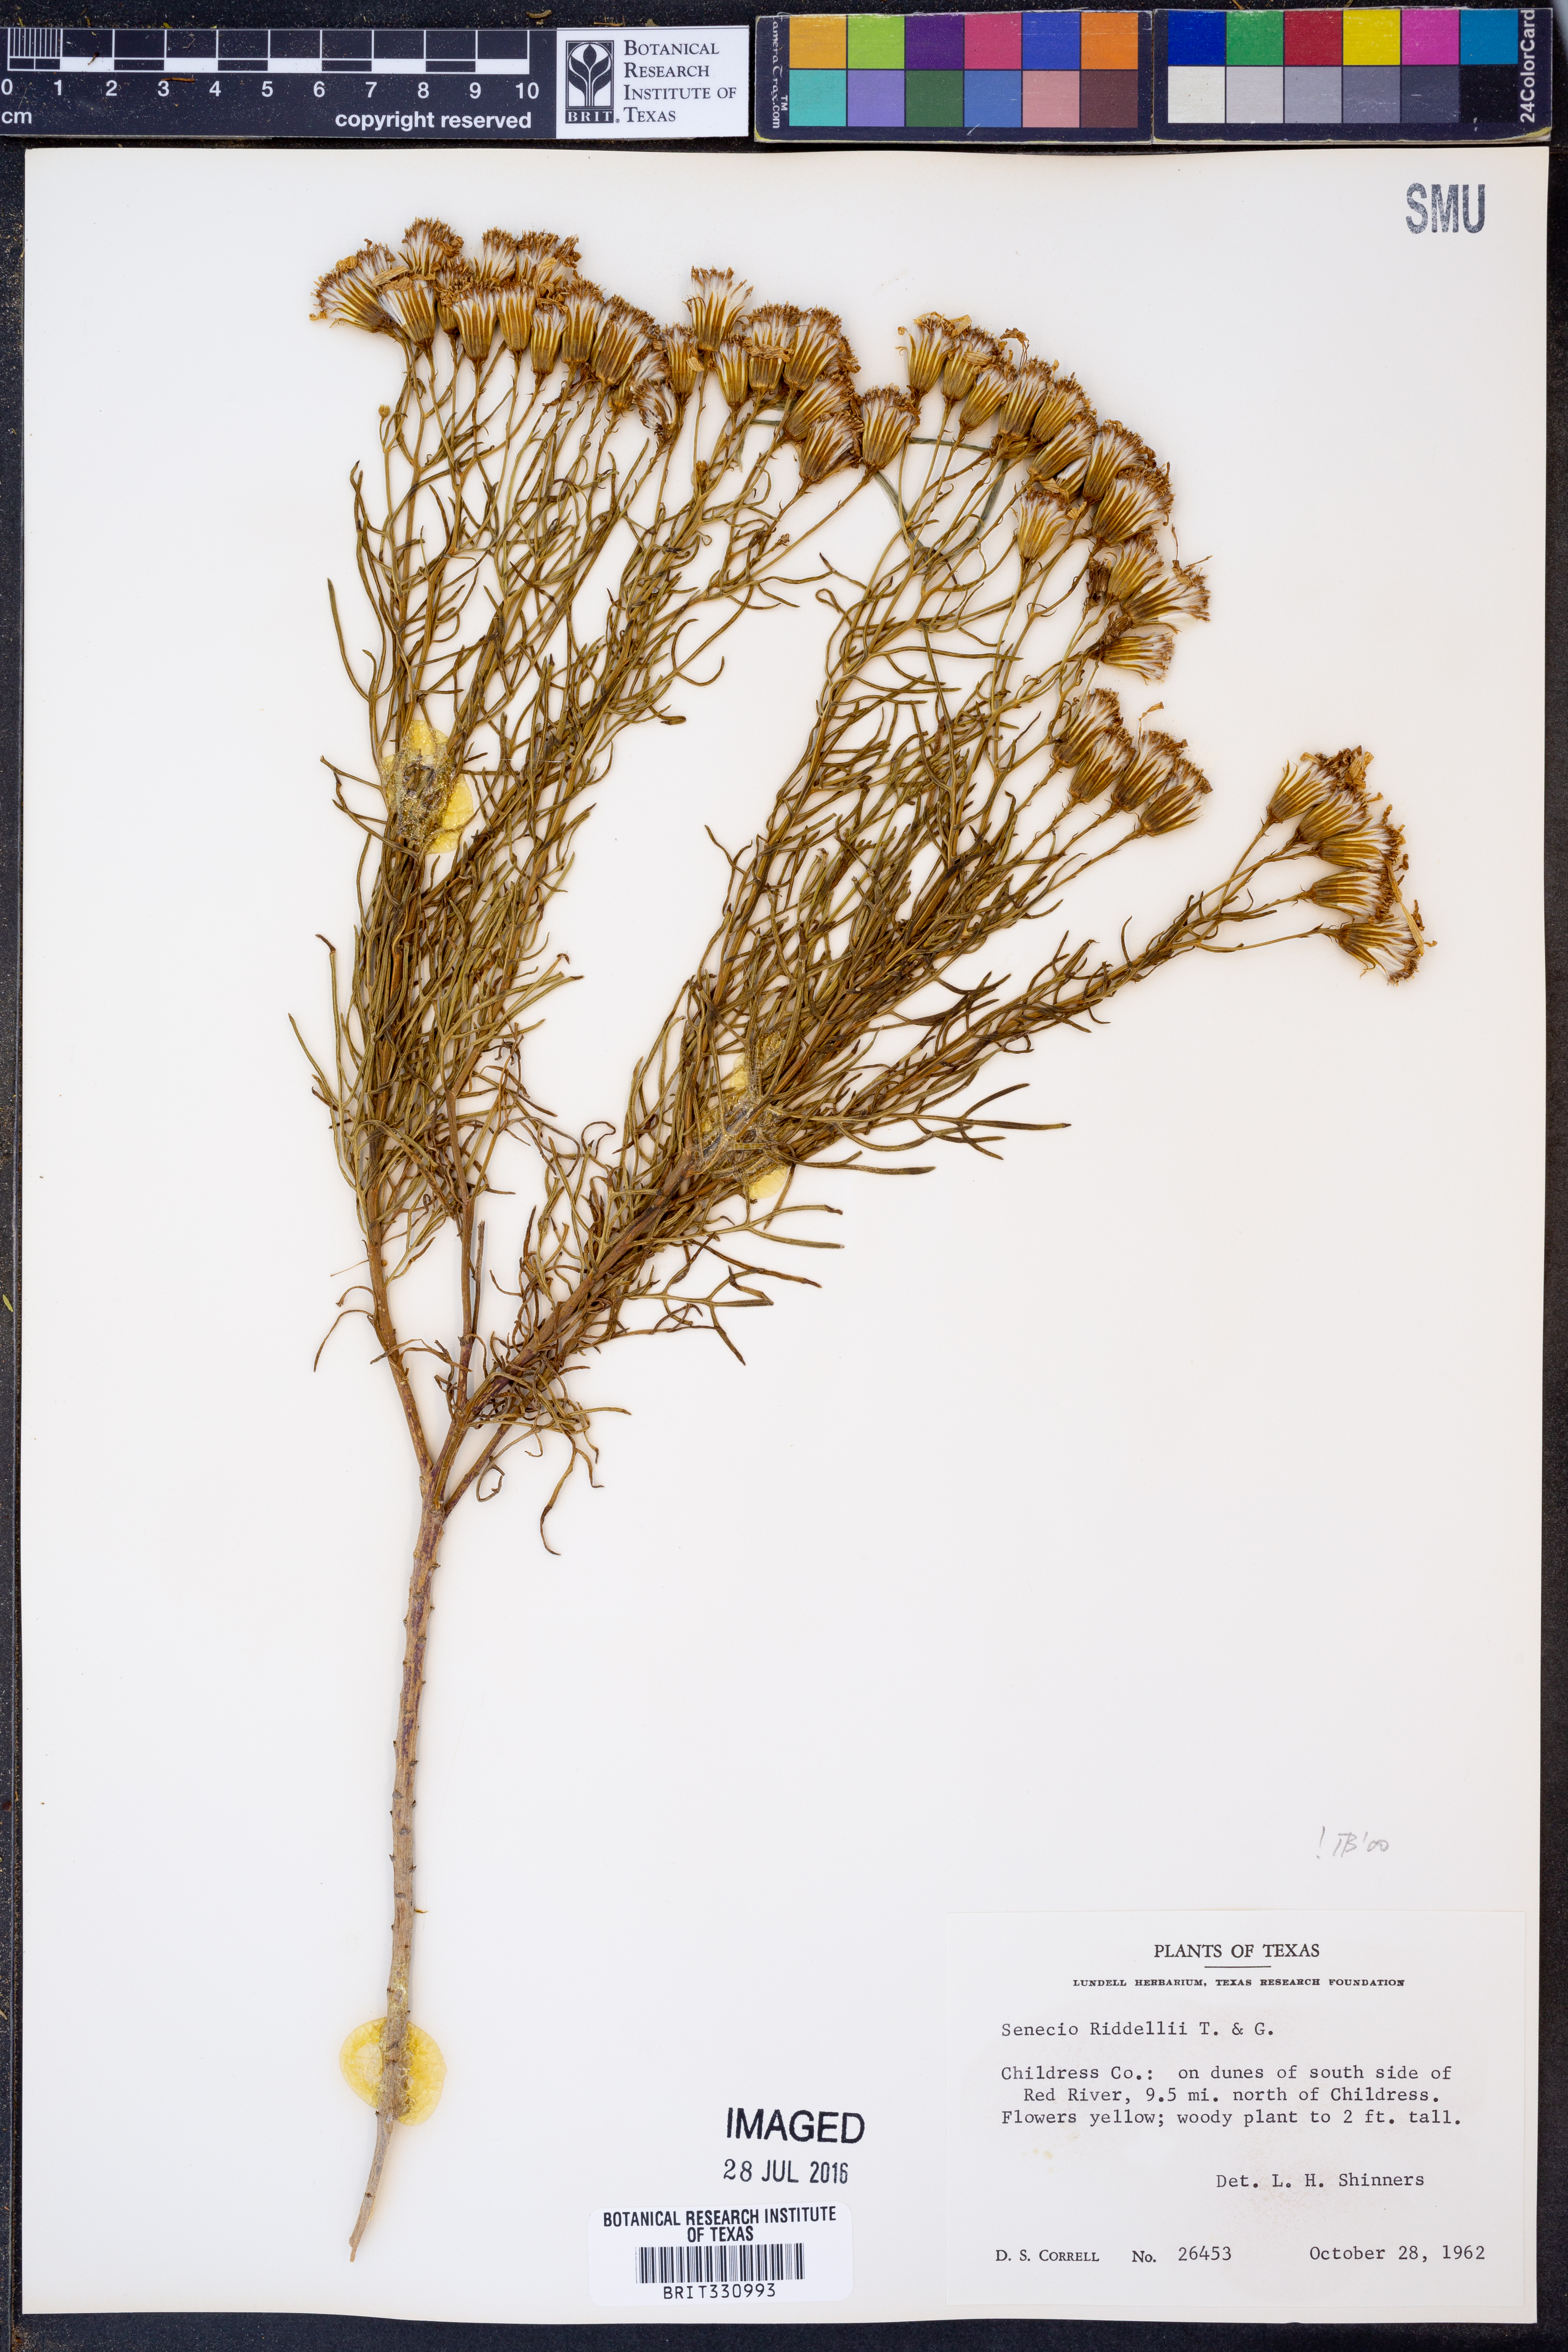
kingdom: Plantae
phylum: Tracheophyta
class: Magnoliopsida
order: Asterales
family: Asteraceae
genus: Senecio
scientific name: Senecio riddellii
